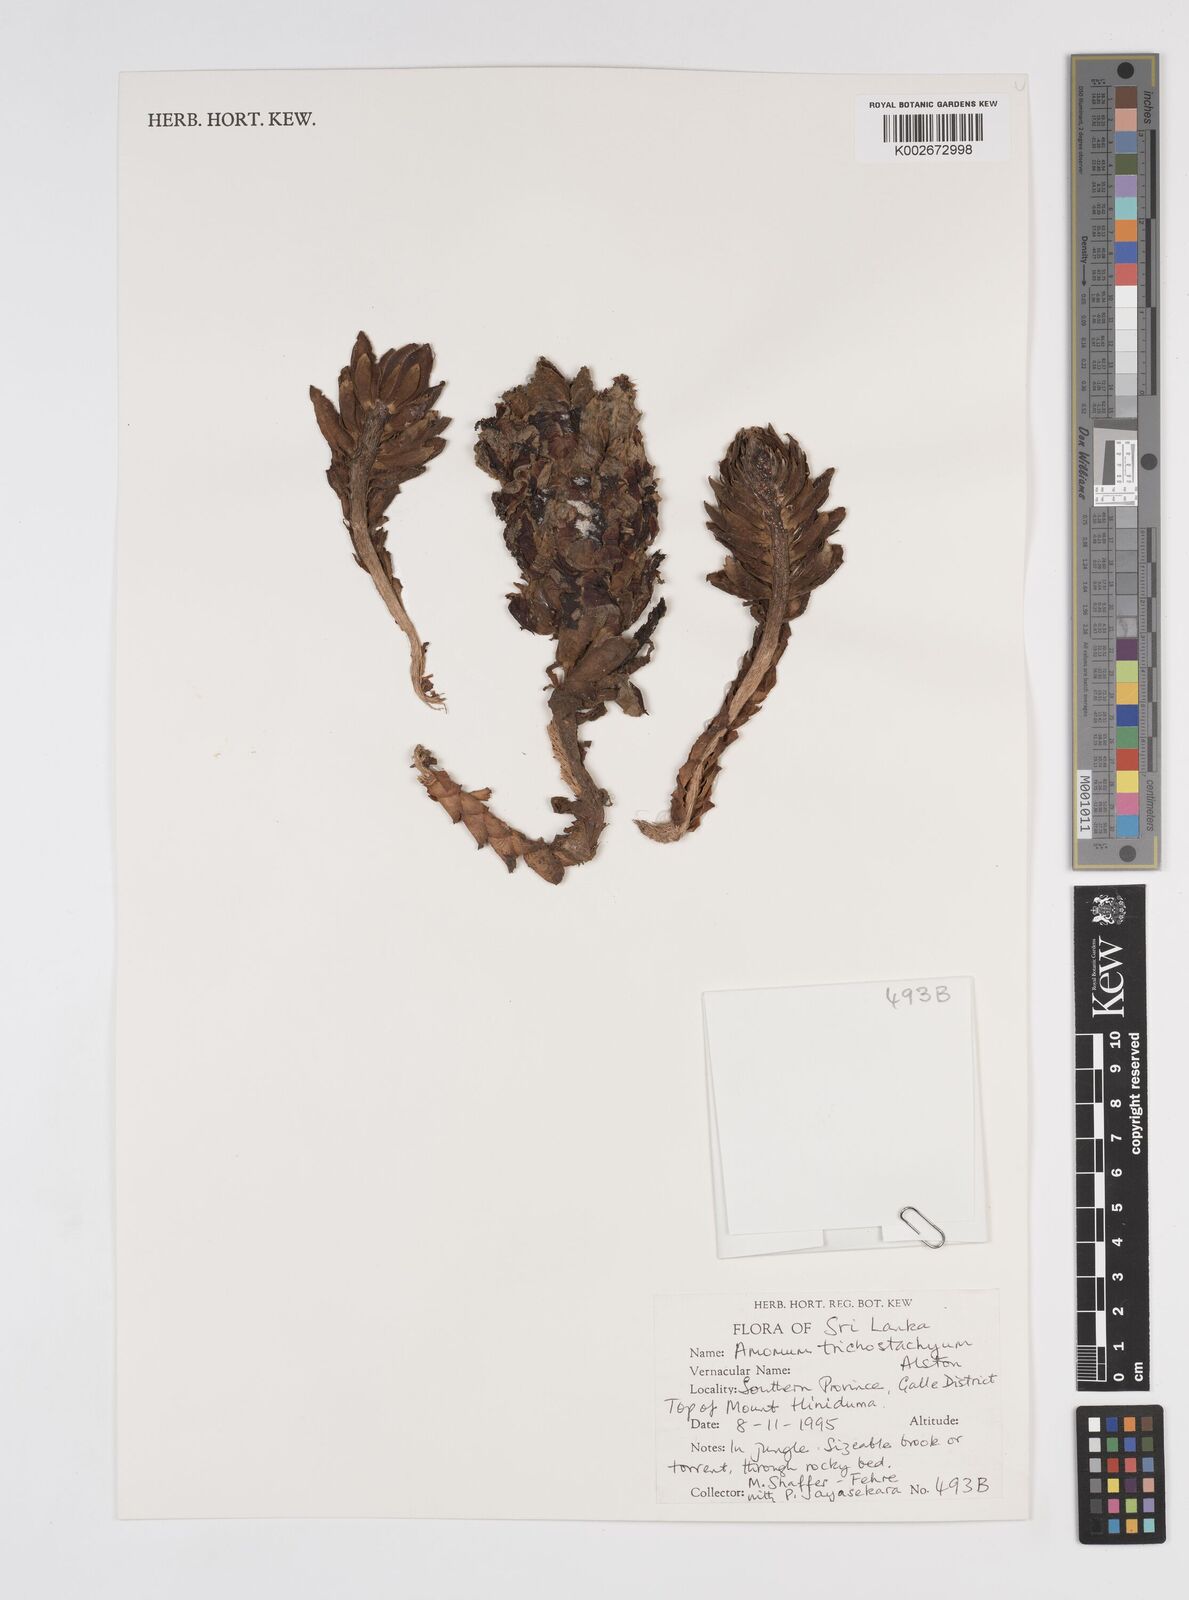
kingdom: Plantae
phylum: Tracheophyta
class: Liliopsida
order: Zingiberales
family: Zingiberaceae
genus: Meistera
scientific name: Meistera trichostachya
